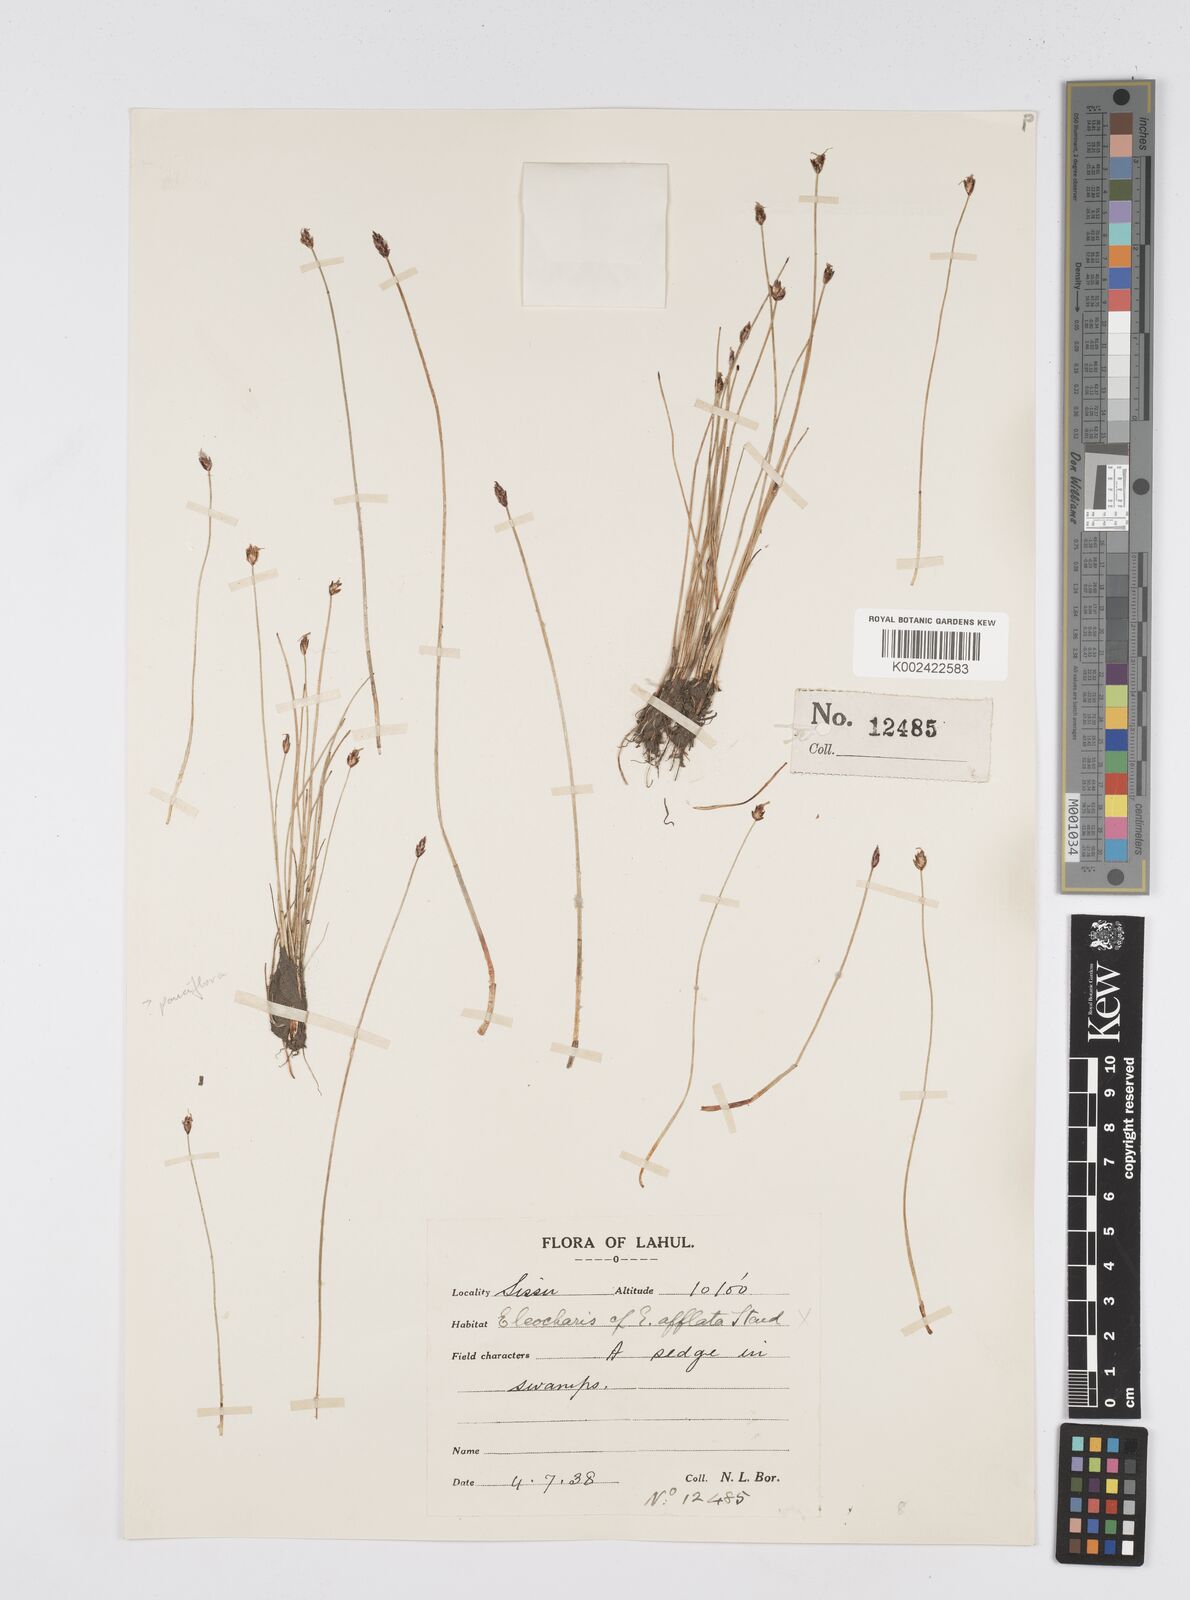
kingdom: Plantae
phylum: Tracheophyta
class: Liliopsida
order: Poales
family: Cyperaceae
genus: Eleocharis
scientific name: Eleocharis uniglumis
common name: Slender spike-rush
